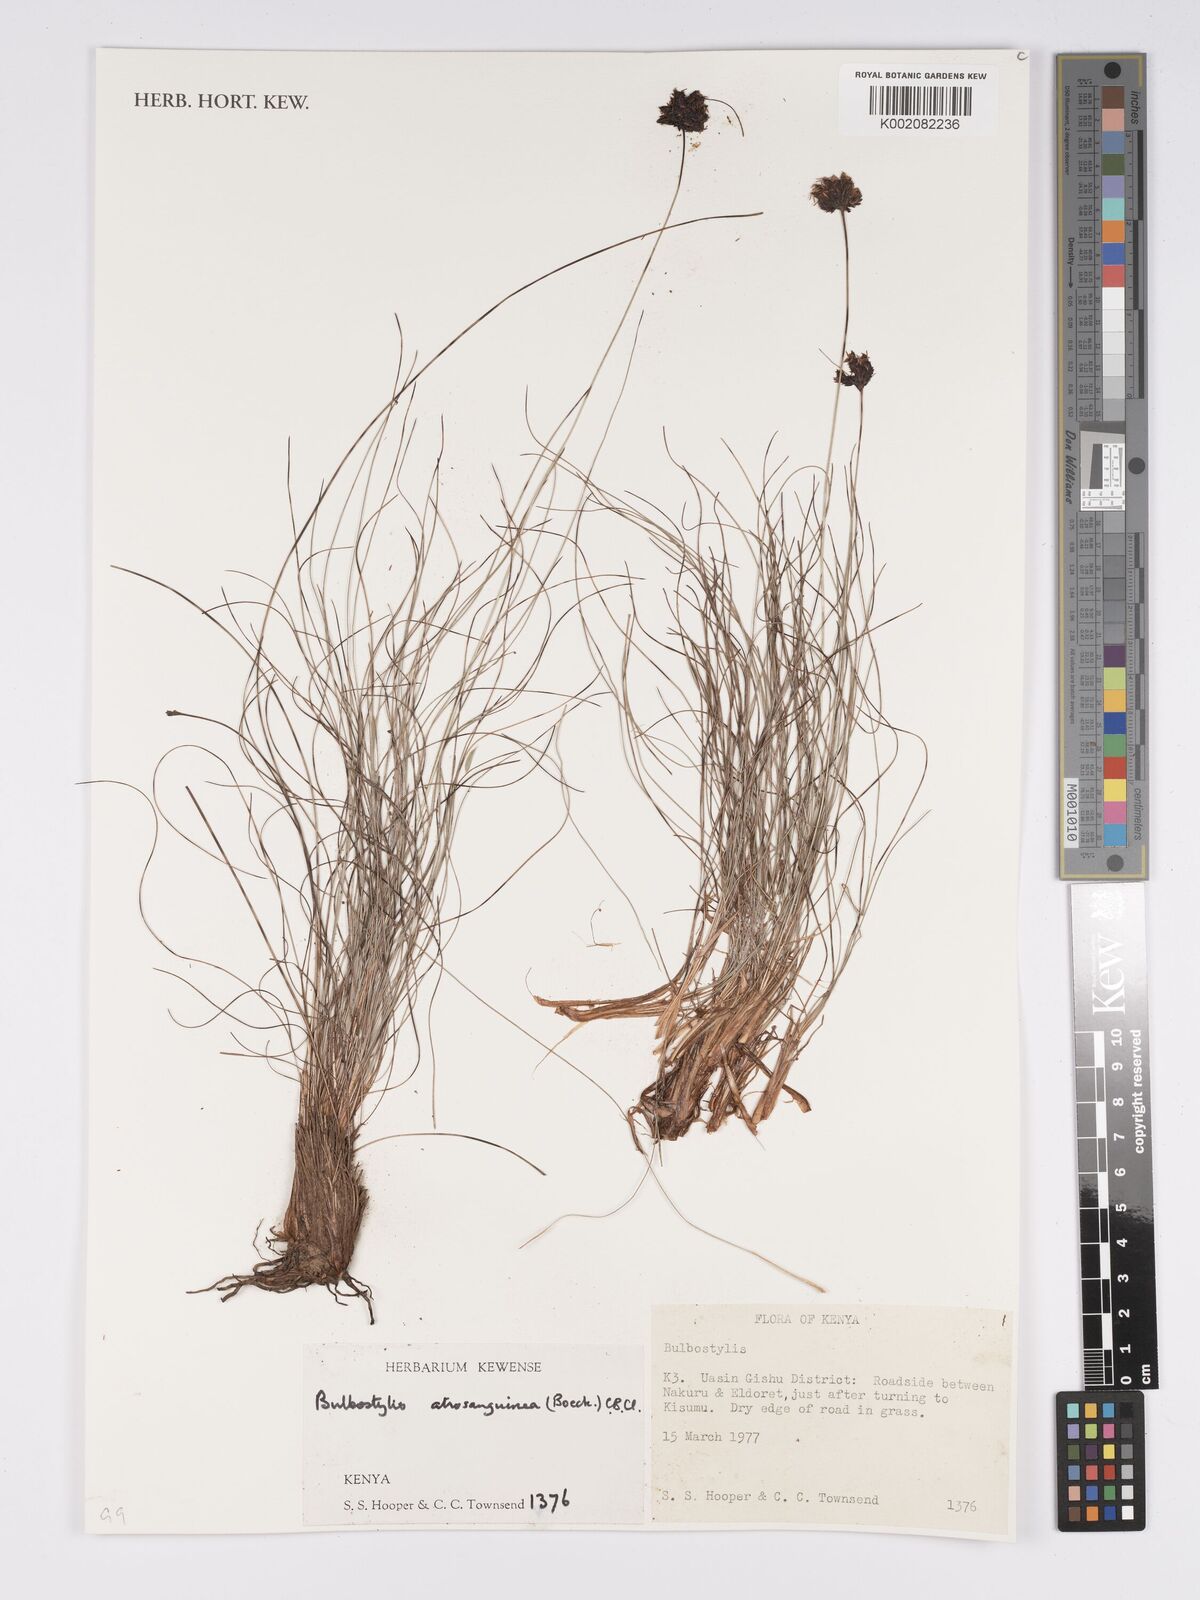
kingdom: Plantae
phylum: Tracheophyta
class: Liliopsida
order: Poales
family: Cyperaceae
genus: Bulbostylis
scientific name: Bulbostylis atrosanguinea
